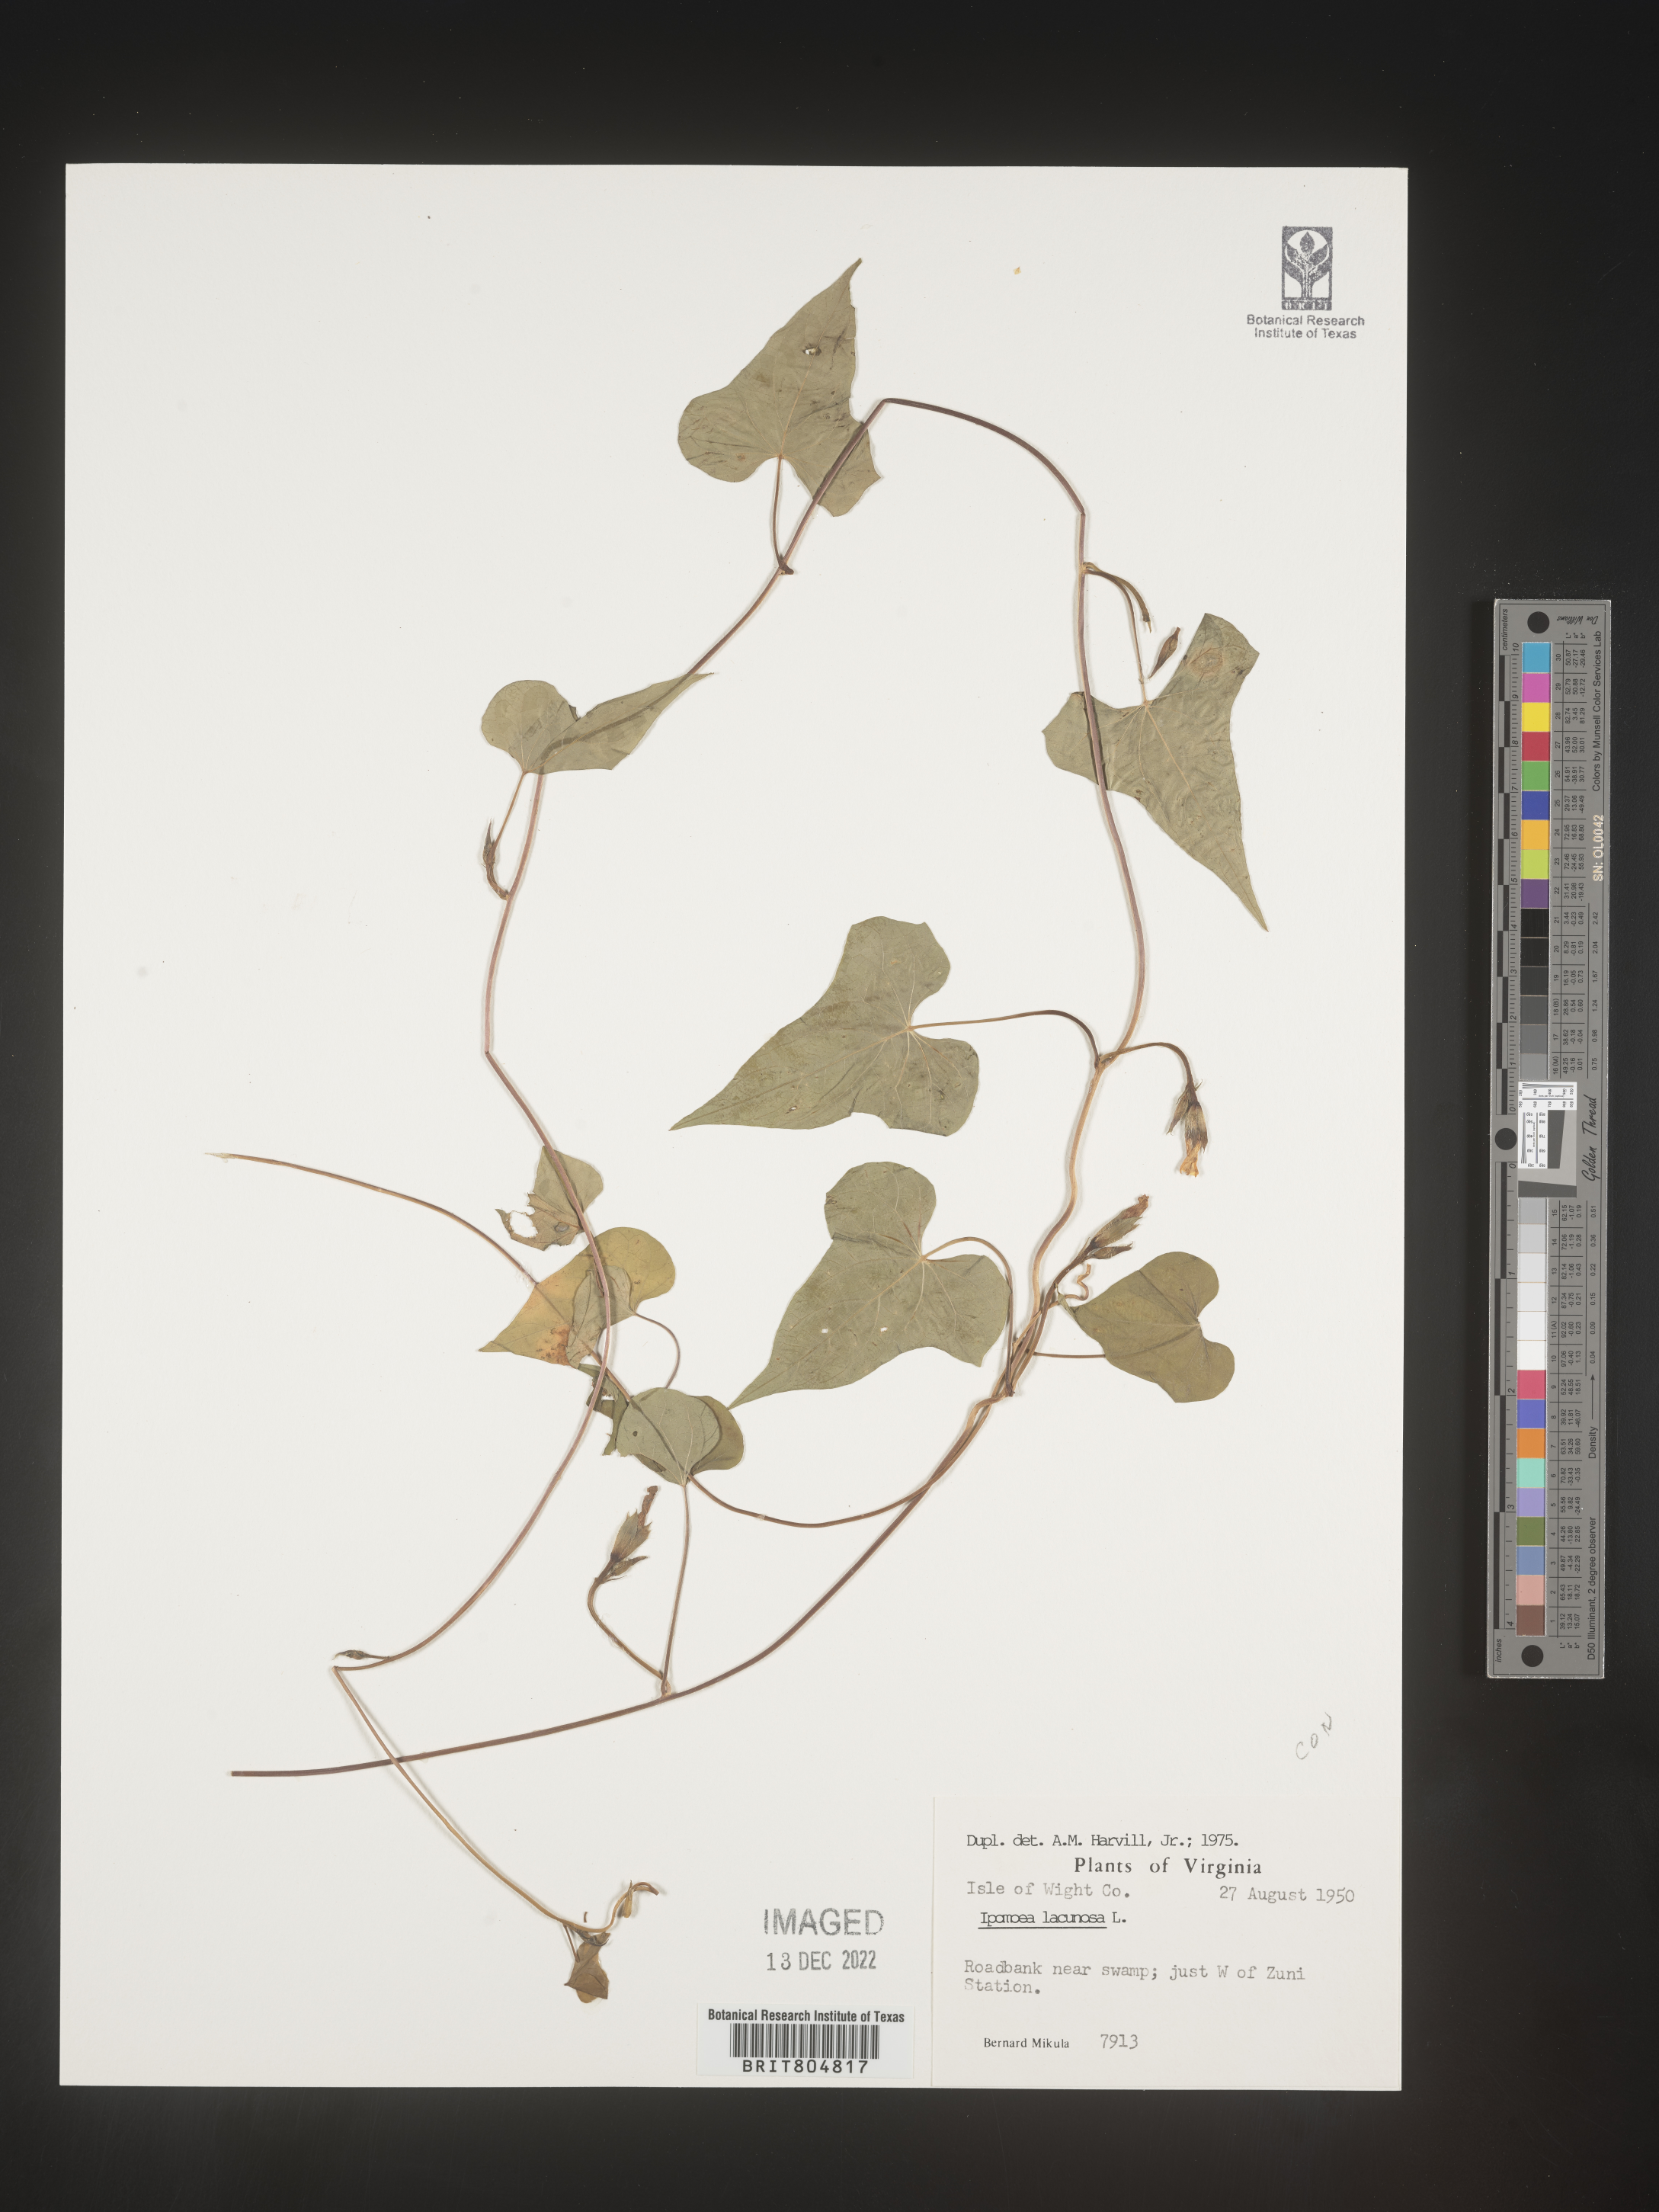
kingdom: Plantae
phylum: Tracheophyta
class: Magnoliopsida
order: Solanales
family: Convolvulaceae
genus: Ipomoea
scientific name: Ipomoea lacunosa
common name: White morning-glory
